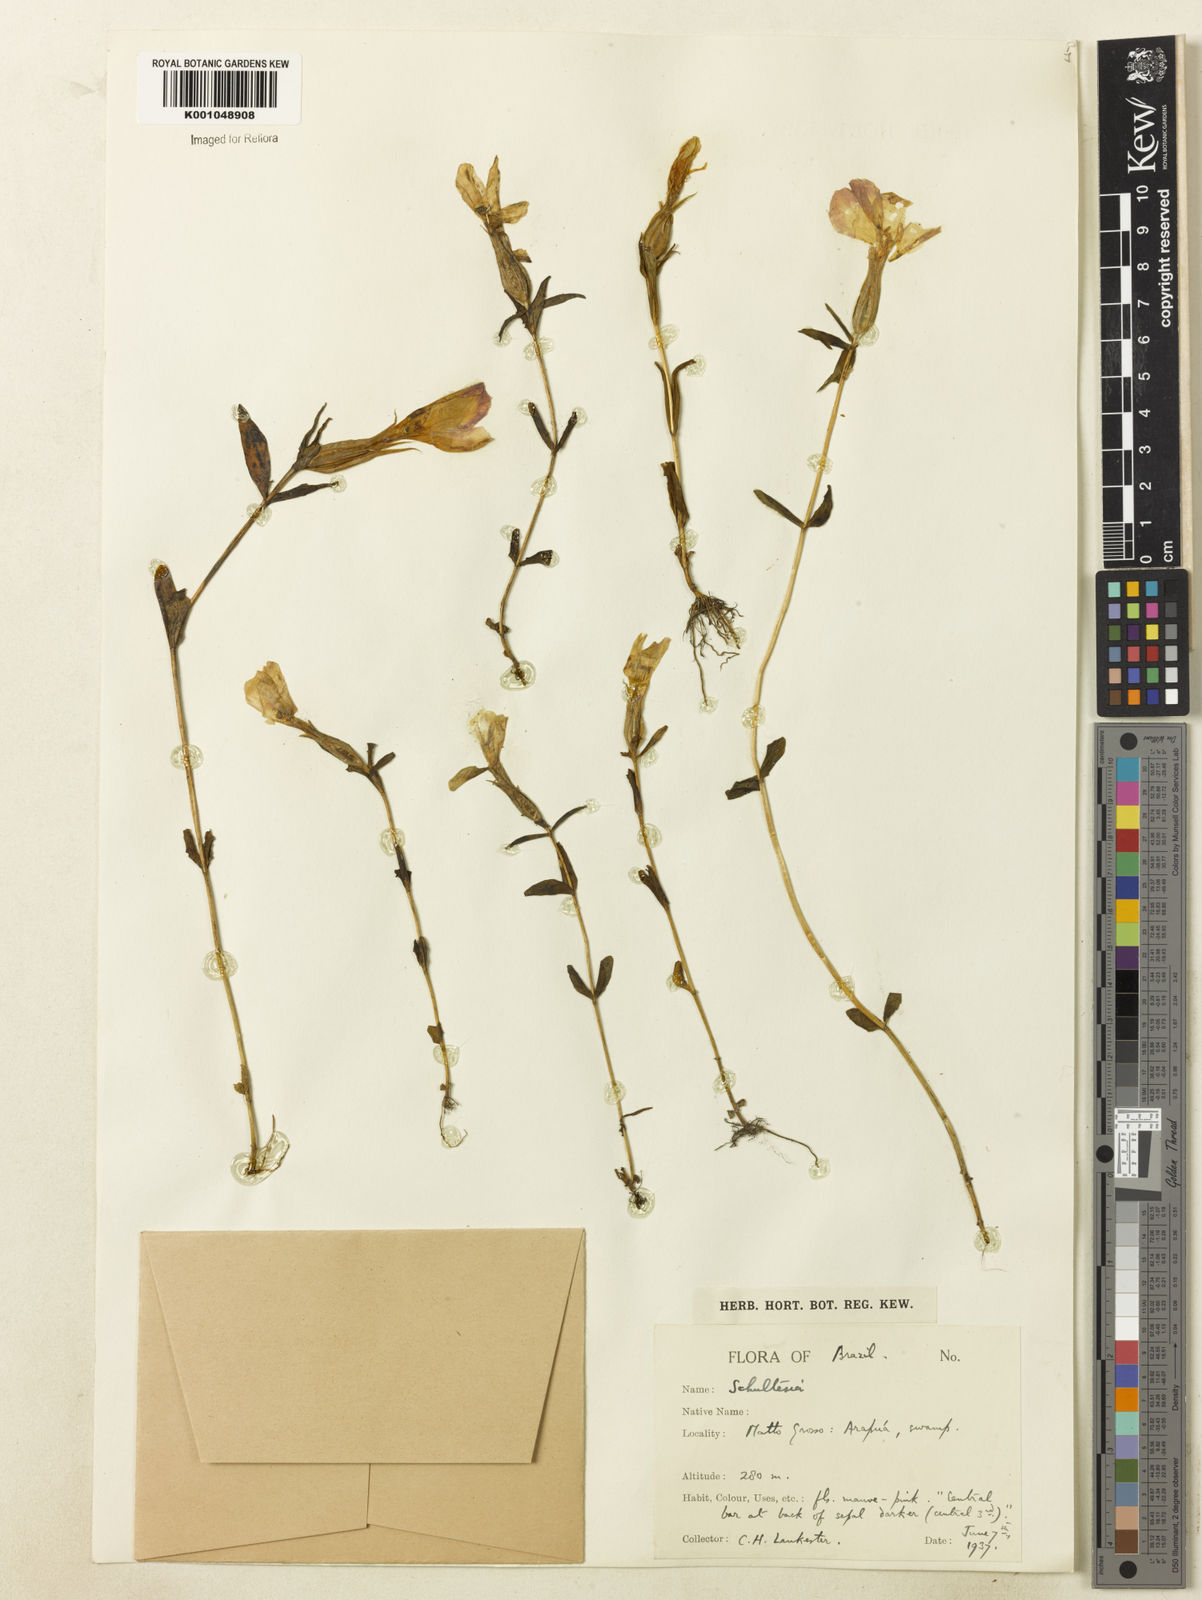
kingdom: Plantae
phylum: Tracheophyta
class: Magnoliopsida
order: Gentianales
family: Gentianaceae
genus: Schultesia
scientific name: Schultesia
